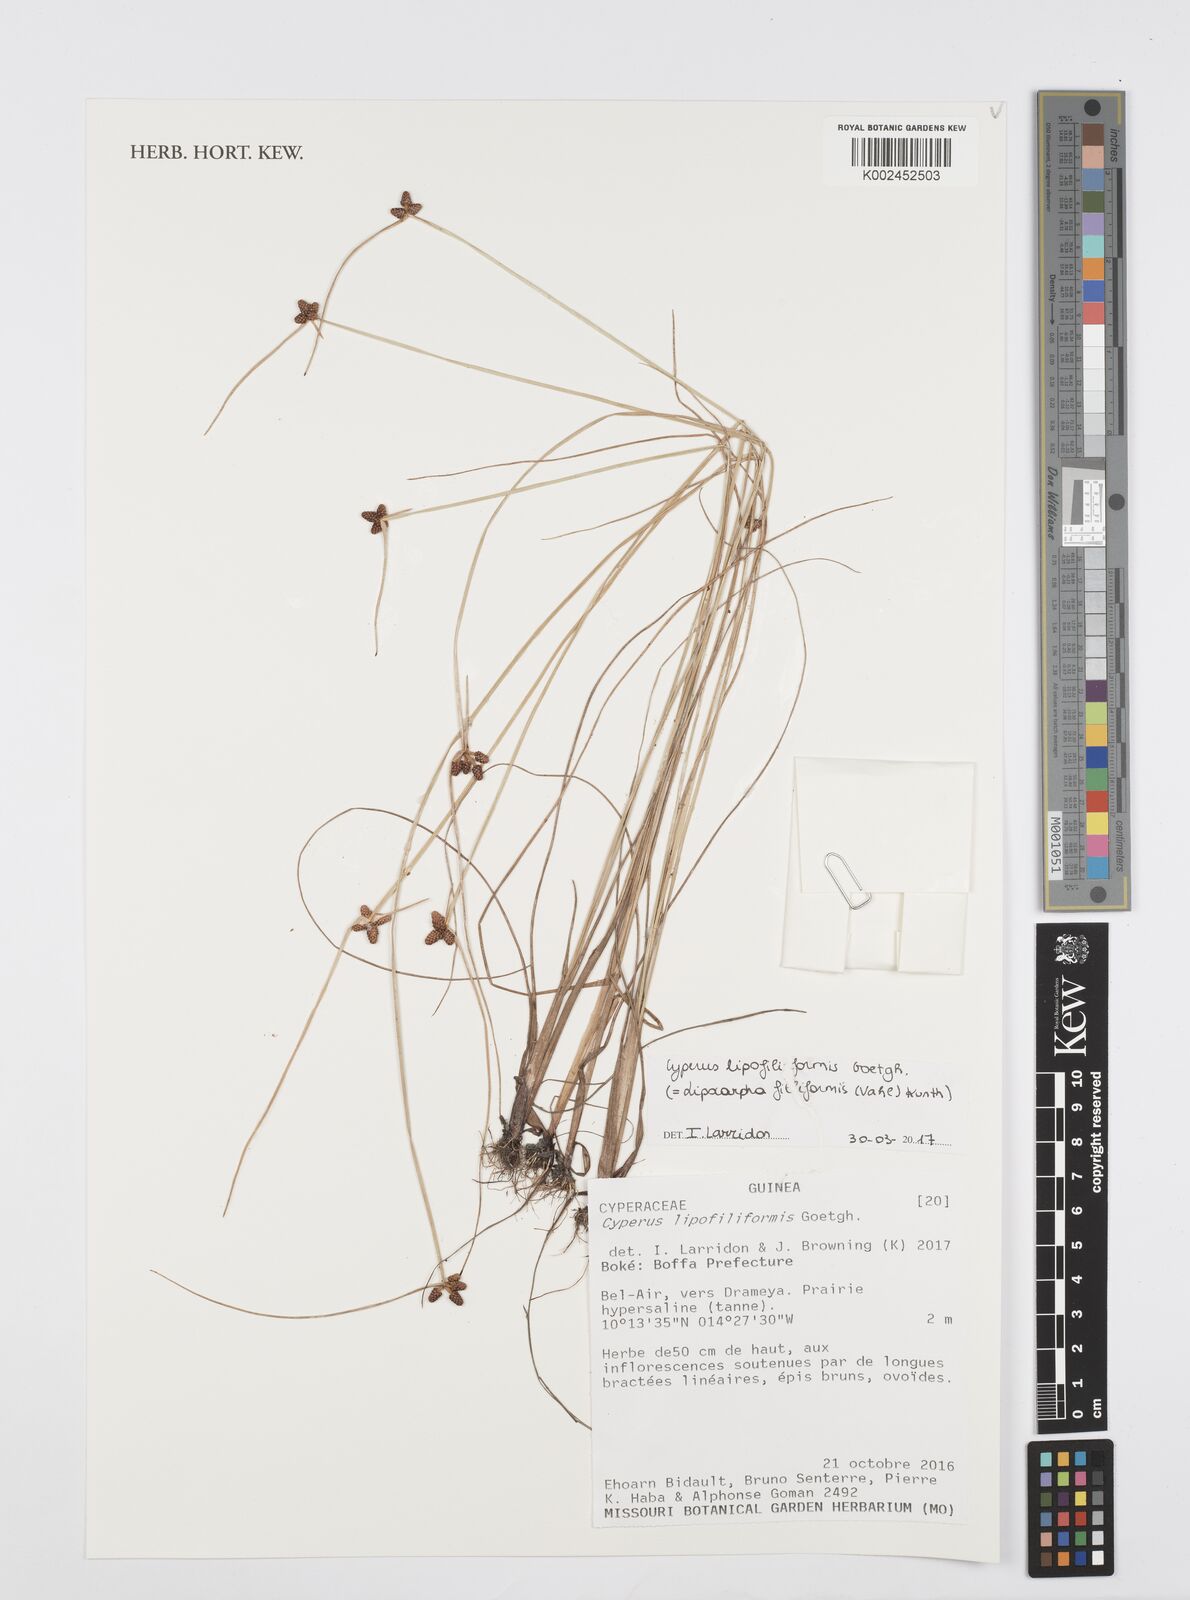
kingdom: Plantae
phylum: Tracheophyta
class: Liliopsida
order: Poales
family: Cyperaceae
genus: Cyperus
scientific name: Cyperus filiformis
